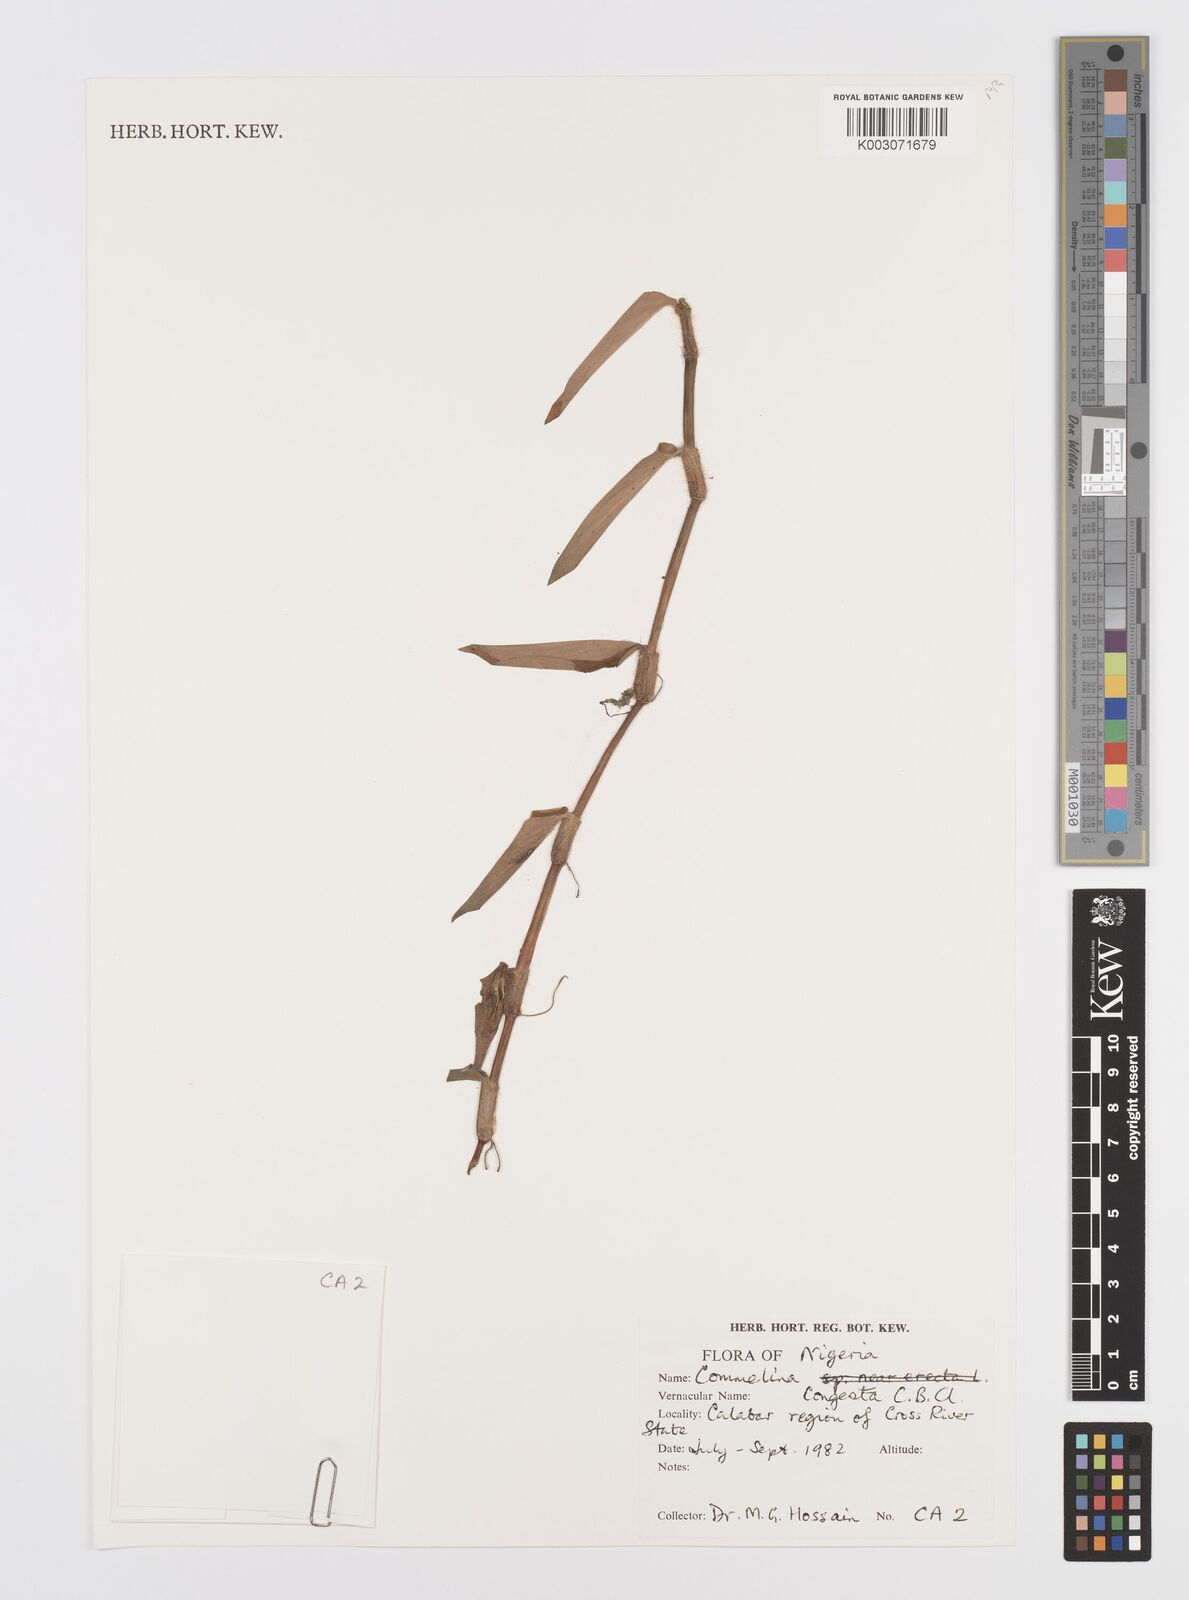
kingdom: Plantae
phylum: Tracheophyta
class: Liliopsida
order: Commelinales
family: Commelinaceae
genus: Commelina
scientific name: Commelina congesta
